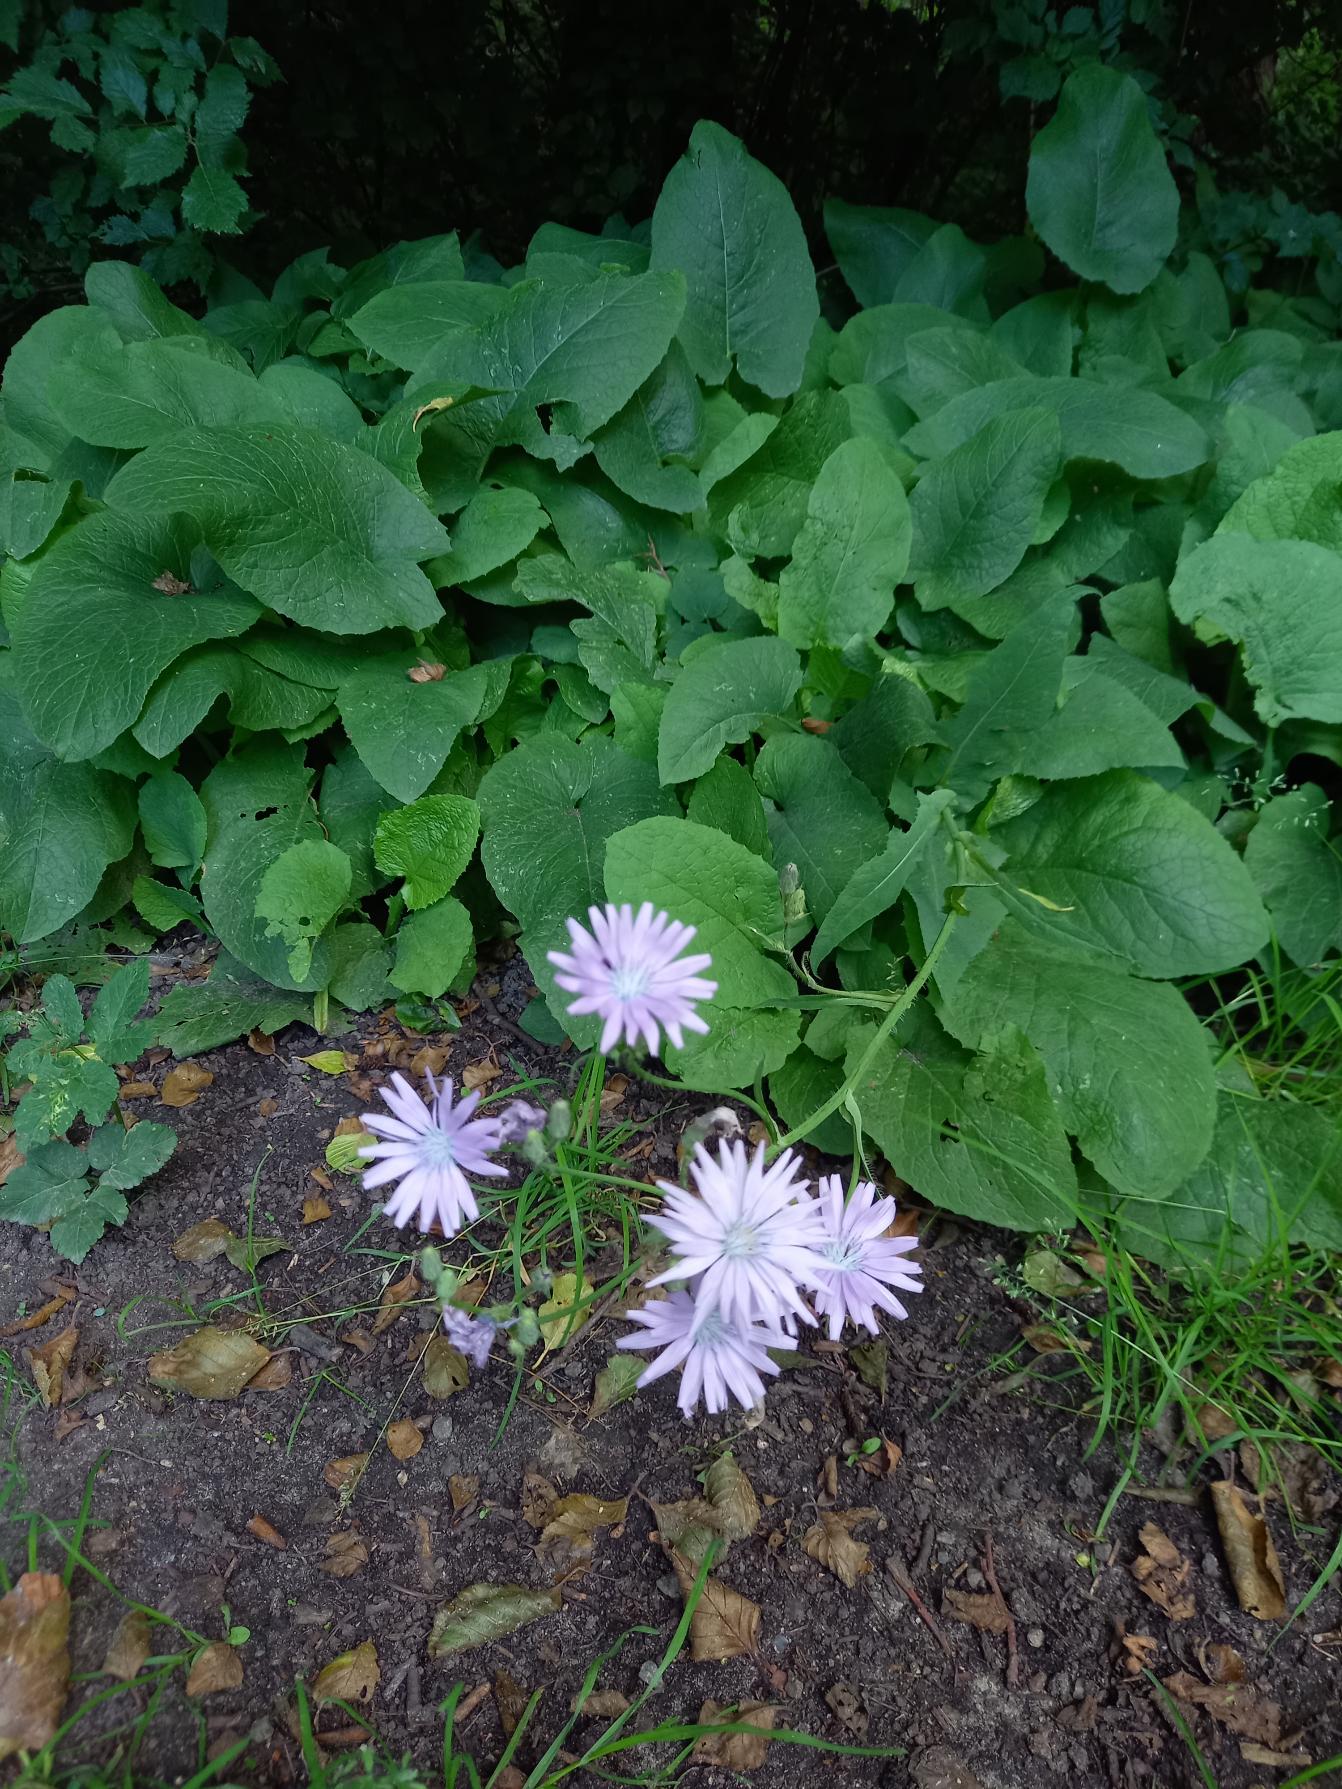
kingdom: Plantae
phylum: Tracheophyta
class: Magnoliopsida
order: Asterales
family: Asteraceae
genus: Lactuca
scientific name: Lactuca macrophylla
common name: Kæmpe-salat
